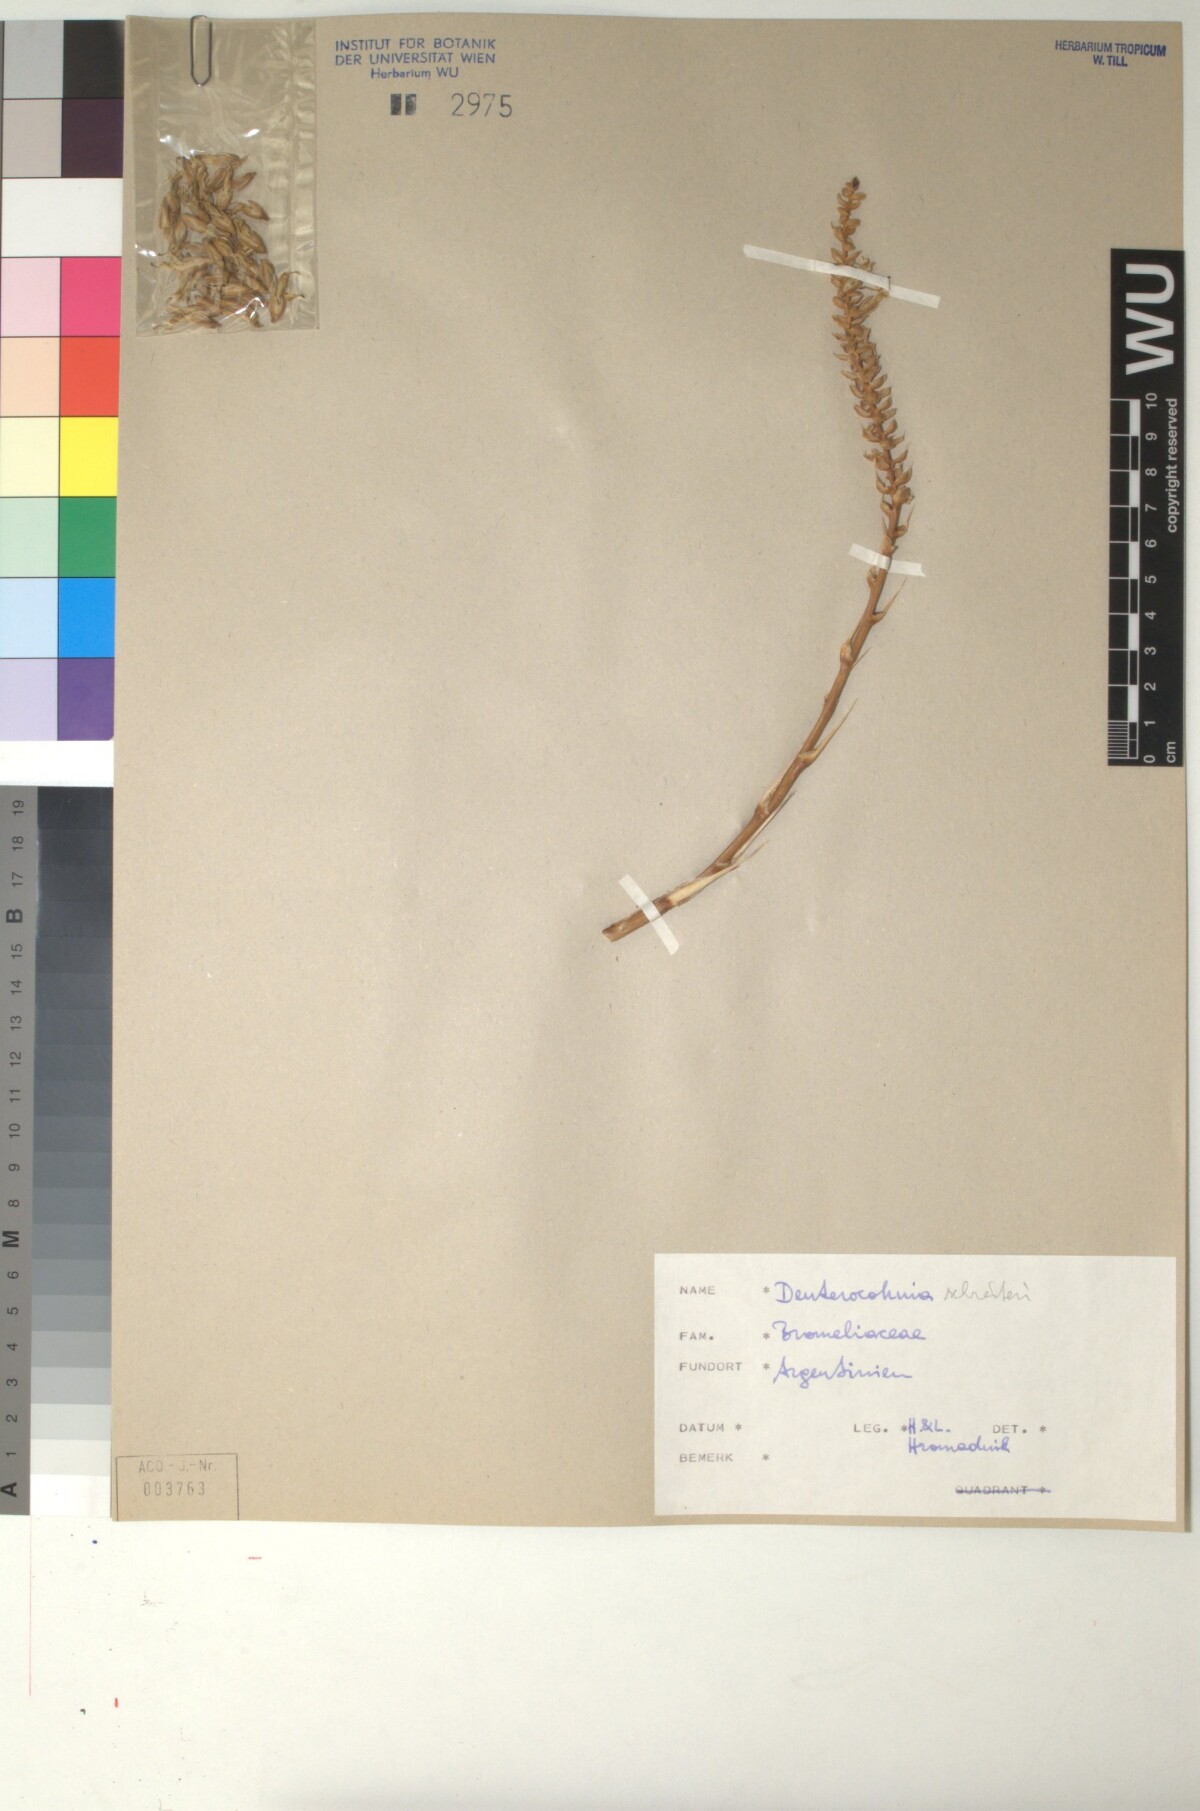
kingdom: Plantae
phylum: Tracheophyta
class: Liliopsida
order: Poales
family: Bromeliaceae
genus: Deuterocohnia
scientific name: Deuterocohnia schreiteri
